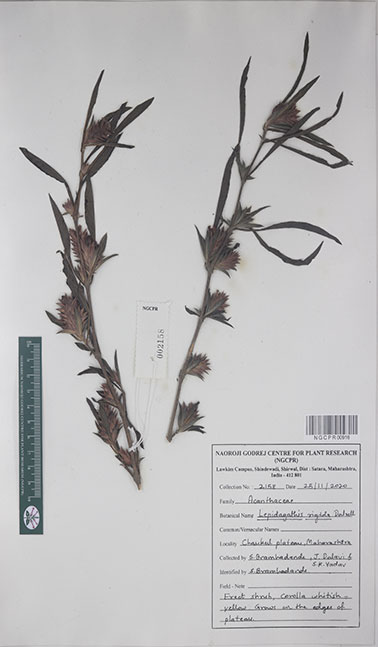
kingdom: Plantae
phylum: Tracheophyta
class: Magnoliopsida
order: Lamiales
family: Acanthaceae
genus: Lepidagathis
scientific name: Lepidagathis rigida
